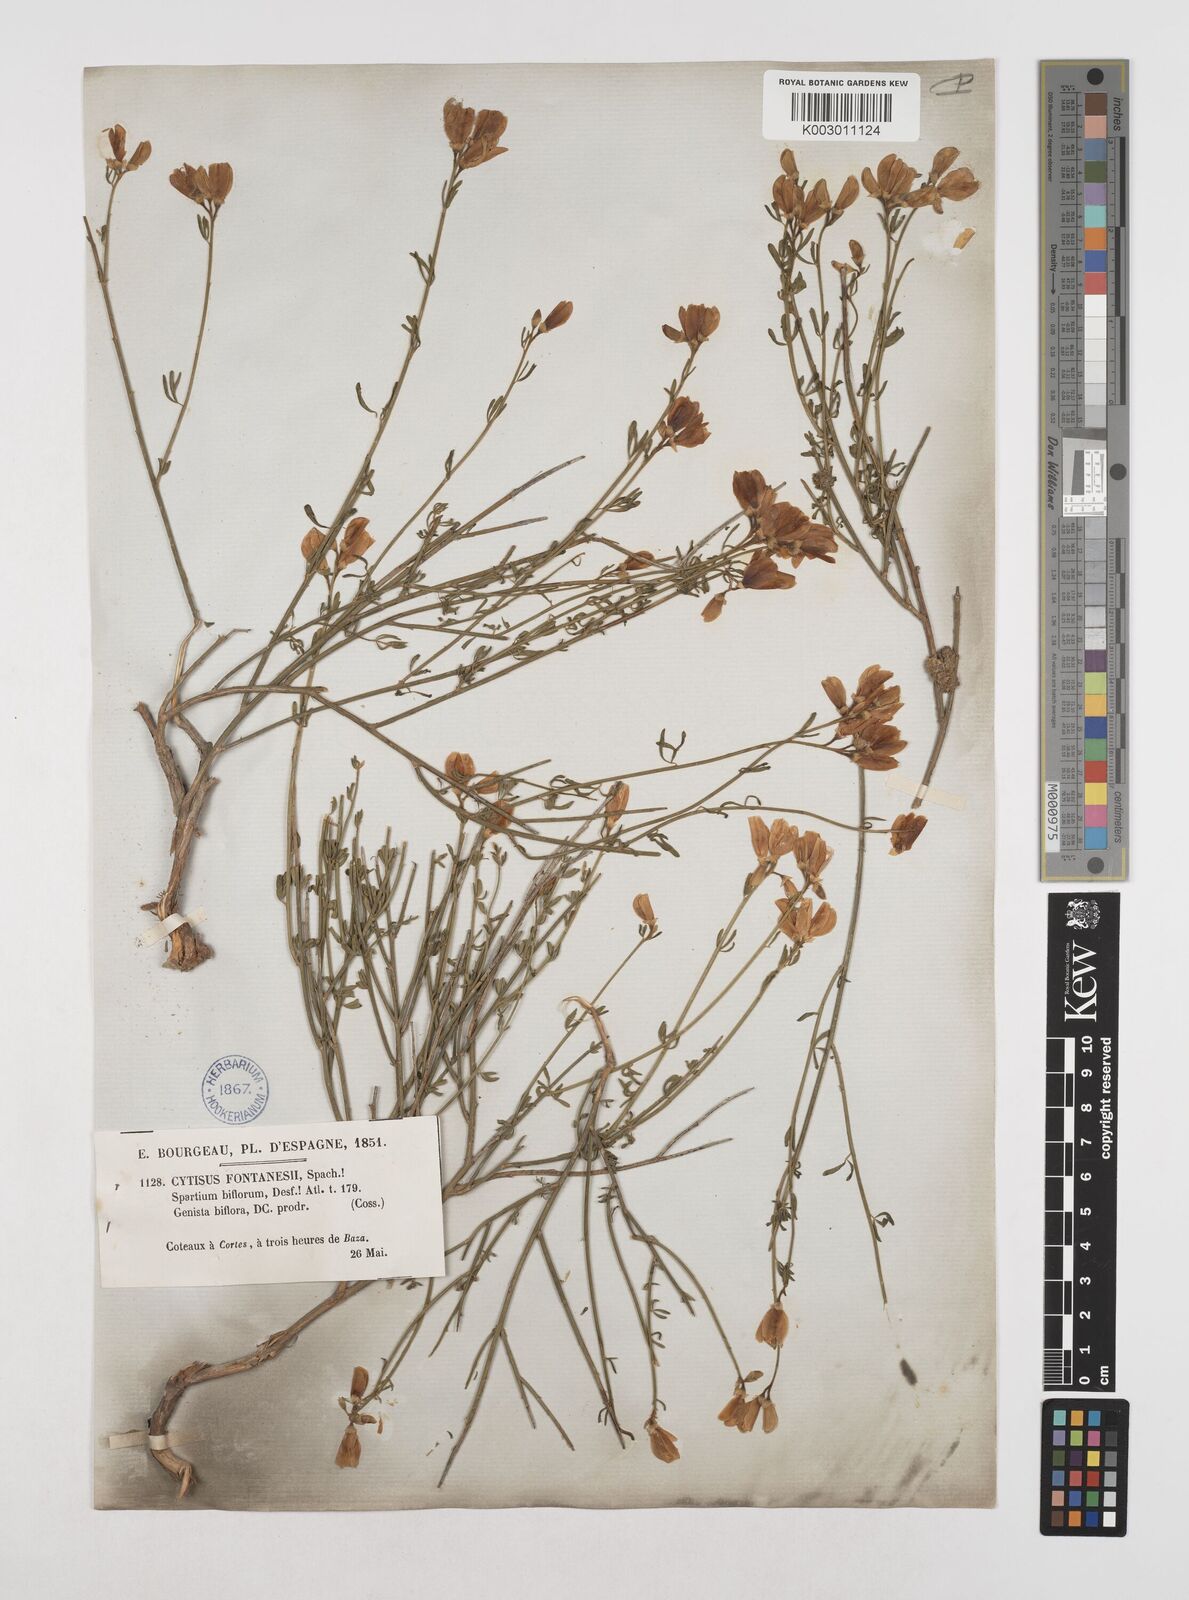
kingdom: Plantae
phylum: Tracheophyta
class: Magnoliopsida
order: Fabales
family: Fabaceae
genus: Cytisus
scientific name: Cytisus fontanesii
